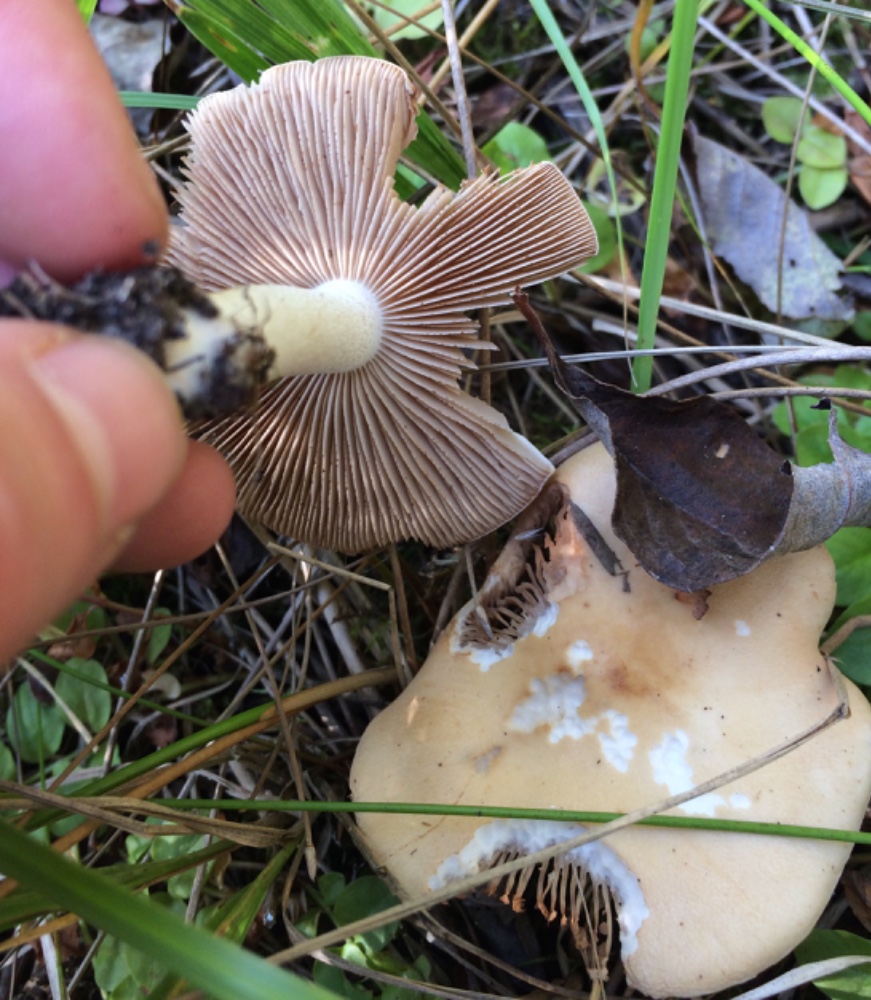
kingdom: Fungi
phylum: Basidiomycota
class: Agaricomycetes
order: Agaricales
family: Hymenogastraceae
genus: Hebeloma
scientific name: Hebeloma
